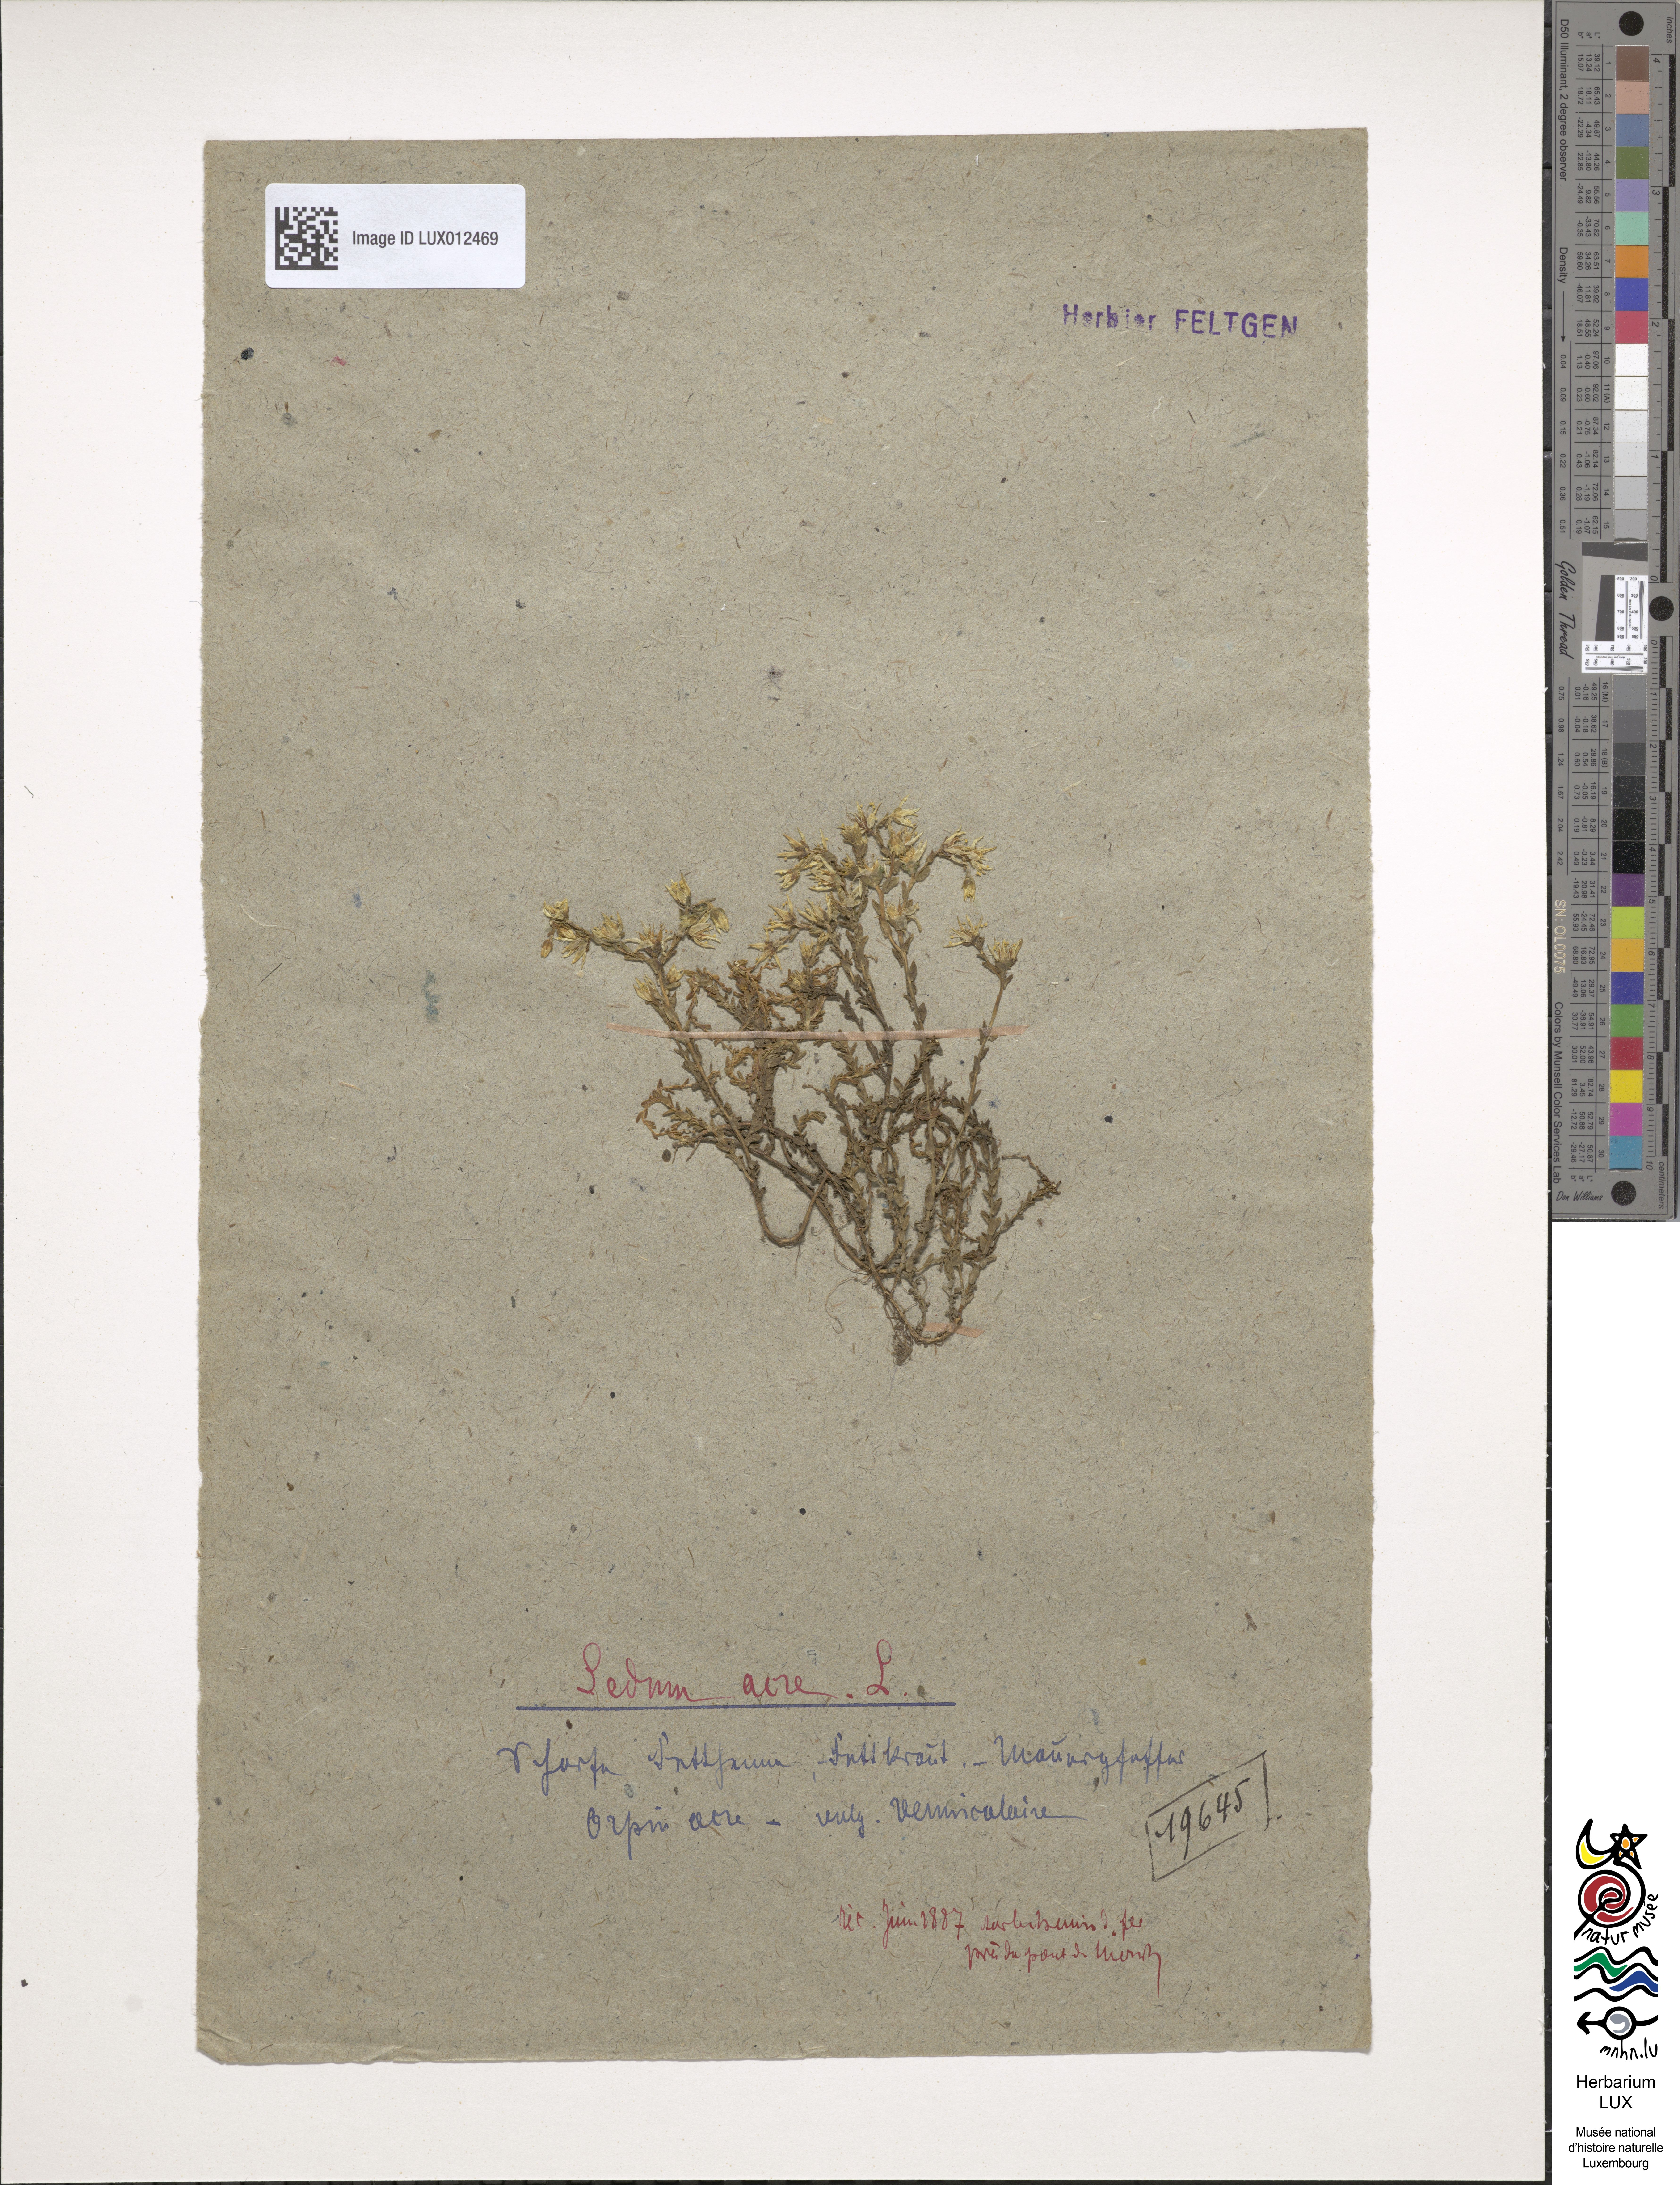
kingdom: Plantae
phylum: Tracheophyta
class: Magnoliopsida
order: Saxifragales
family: Crassulaceae
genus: Sedum
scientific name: Sedum acre
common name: Biting stonecrop
